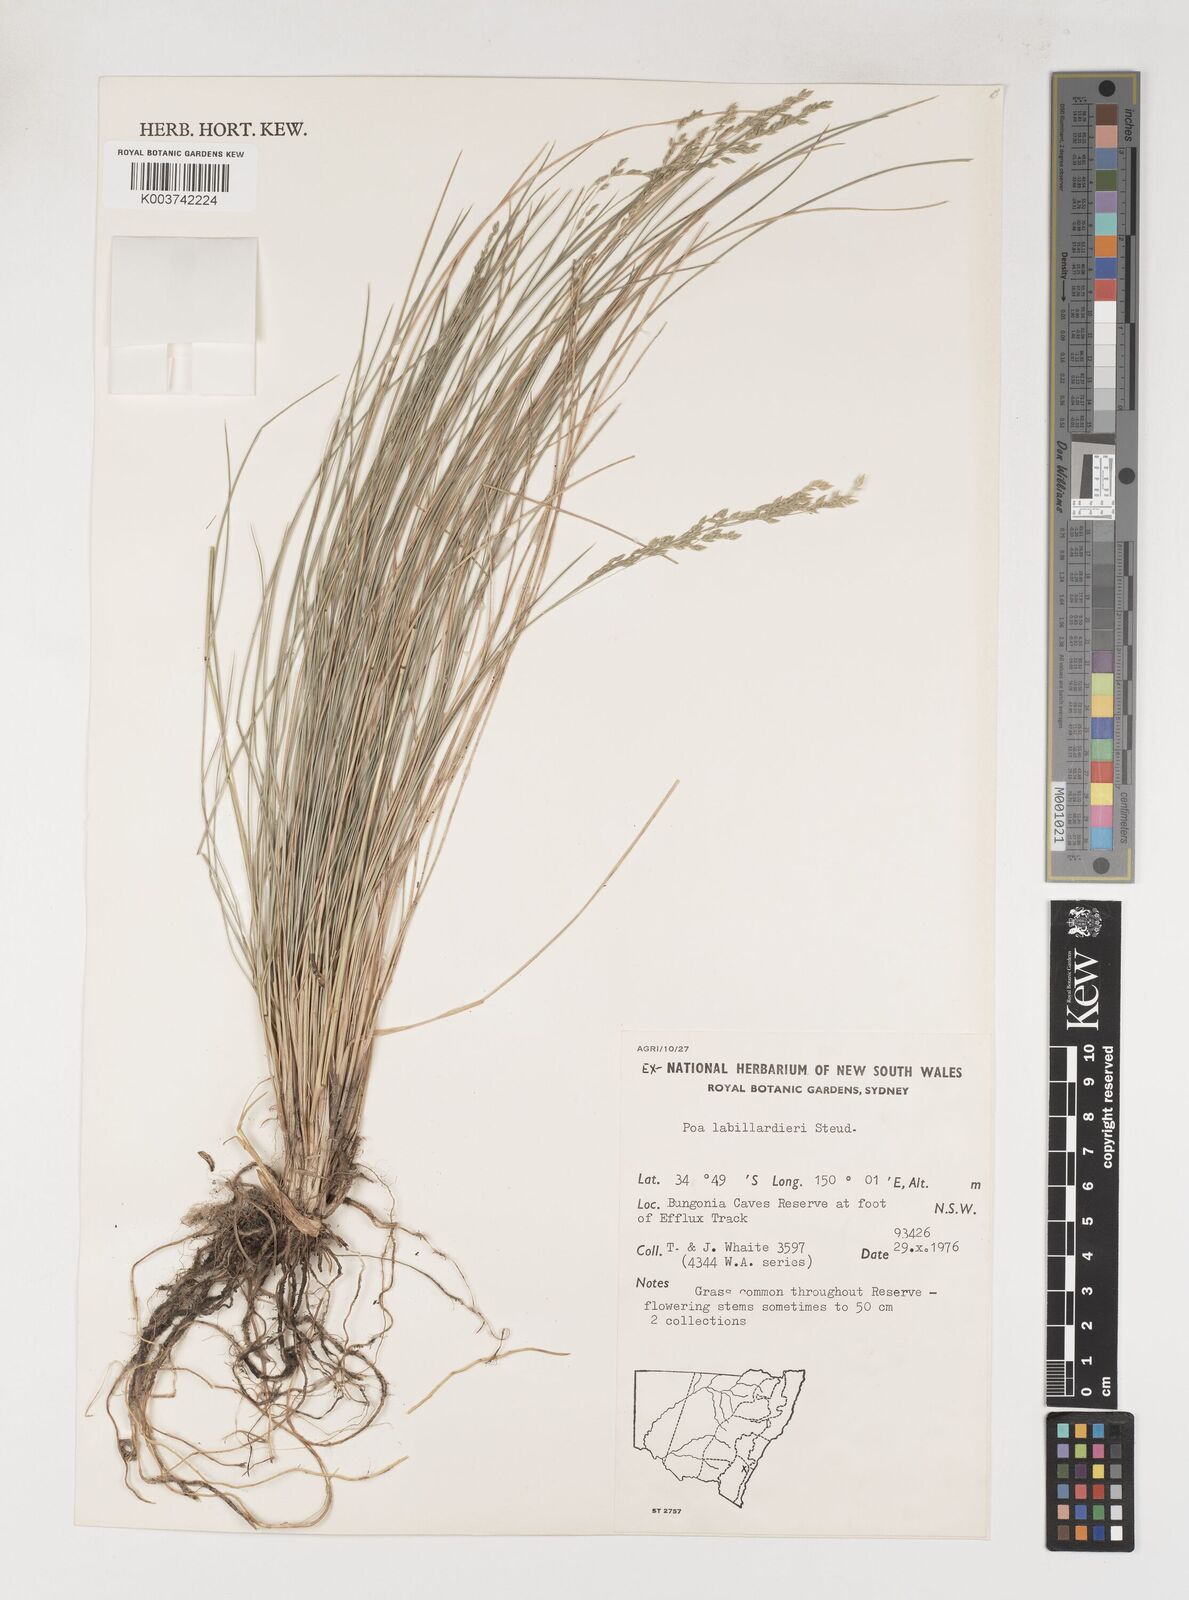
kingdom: Plantae
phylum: Tracheophyta
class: Liliopsida
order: Poales
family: Poaceae
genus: Poa
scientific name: Poa labillardierei
